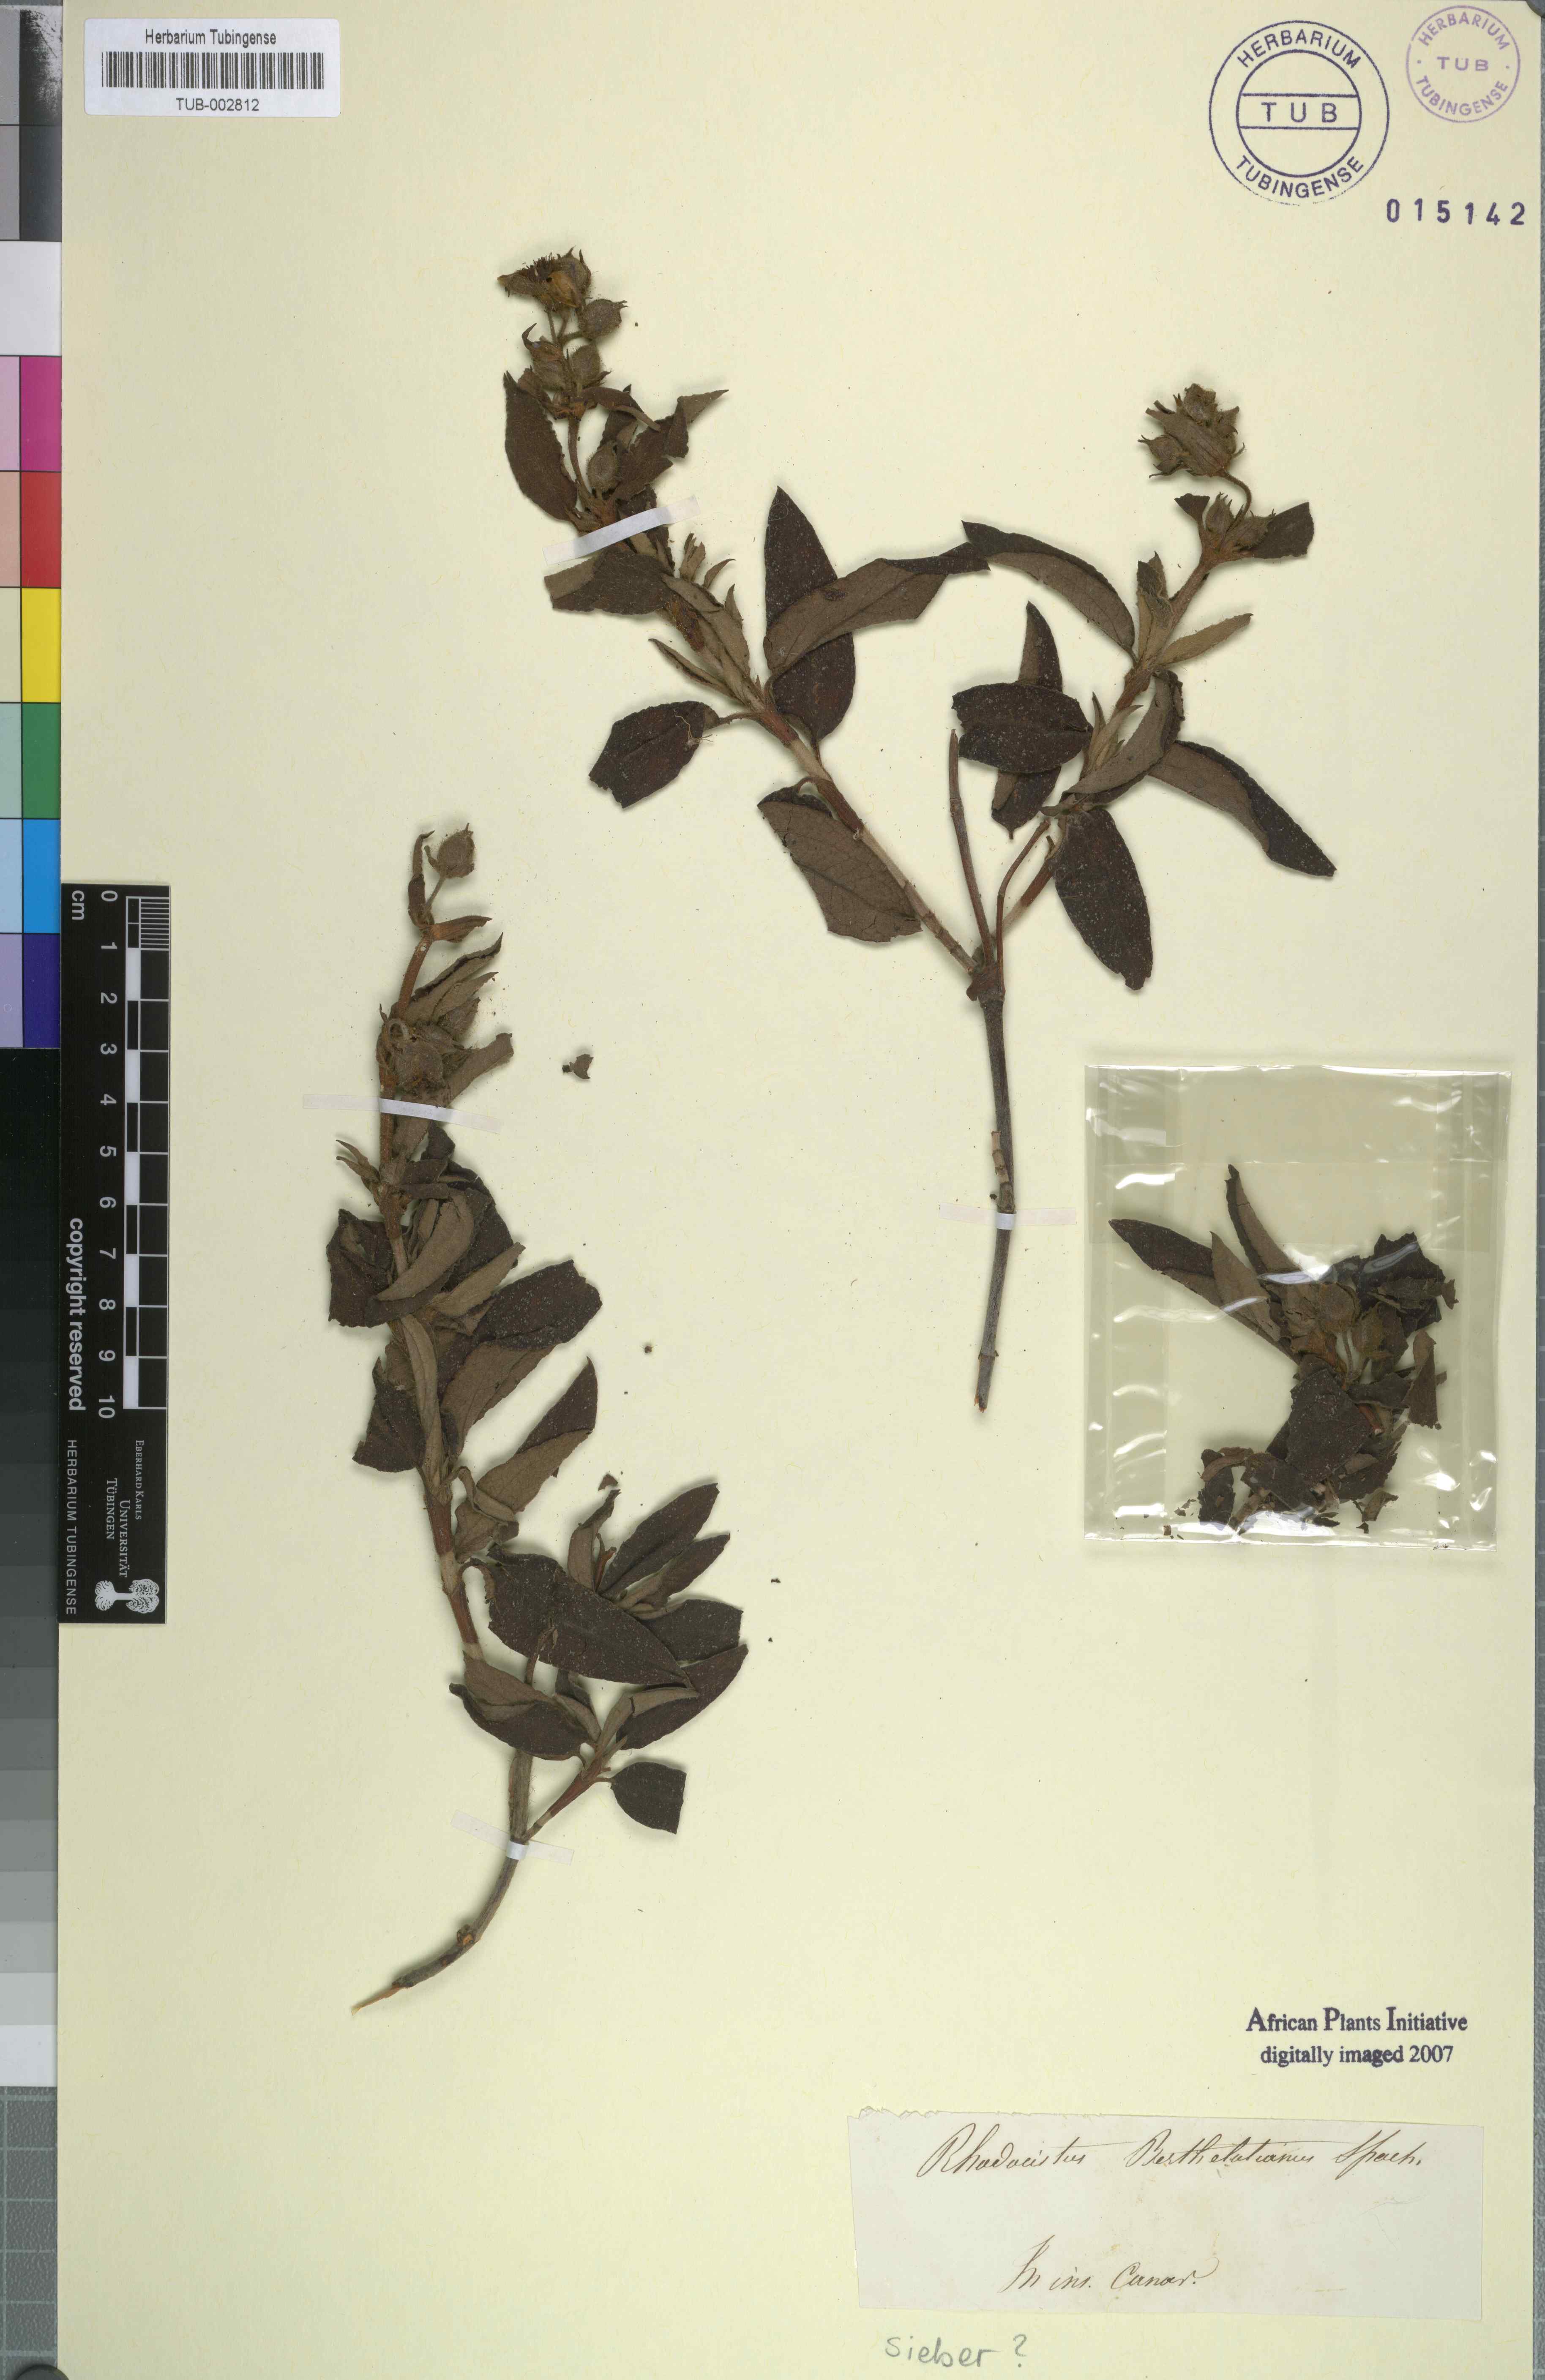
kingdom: Plantae
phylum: Tracheophyta
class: Magnoliopsida
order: Malvales
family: Cistaceae
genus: Cistus
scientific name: Cistus symphytifolius
